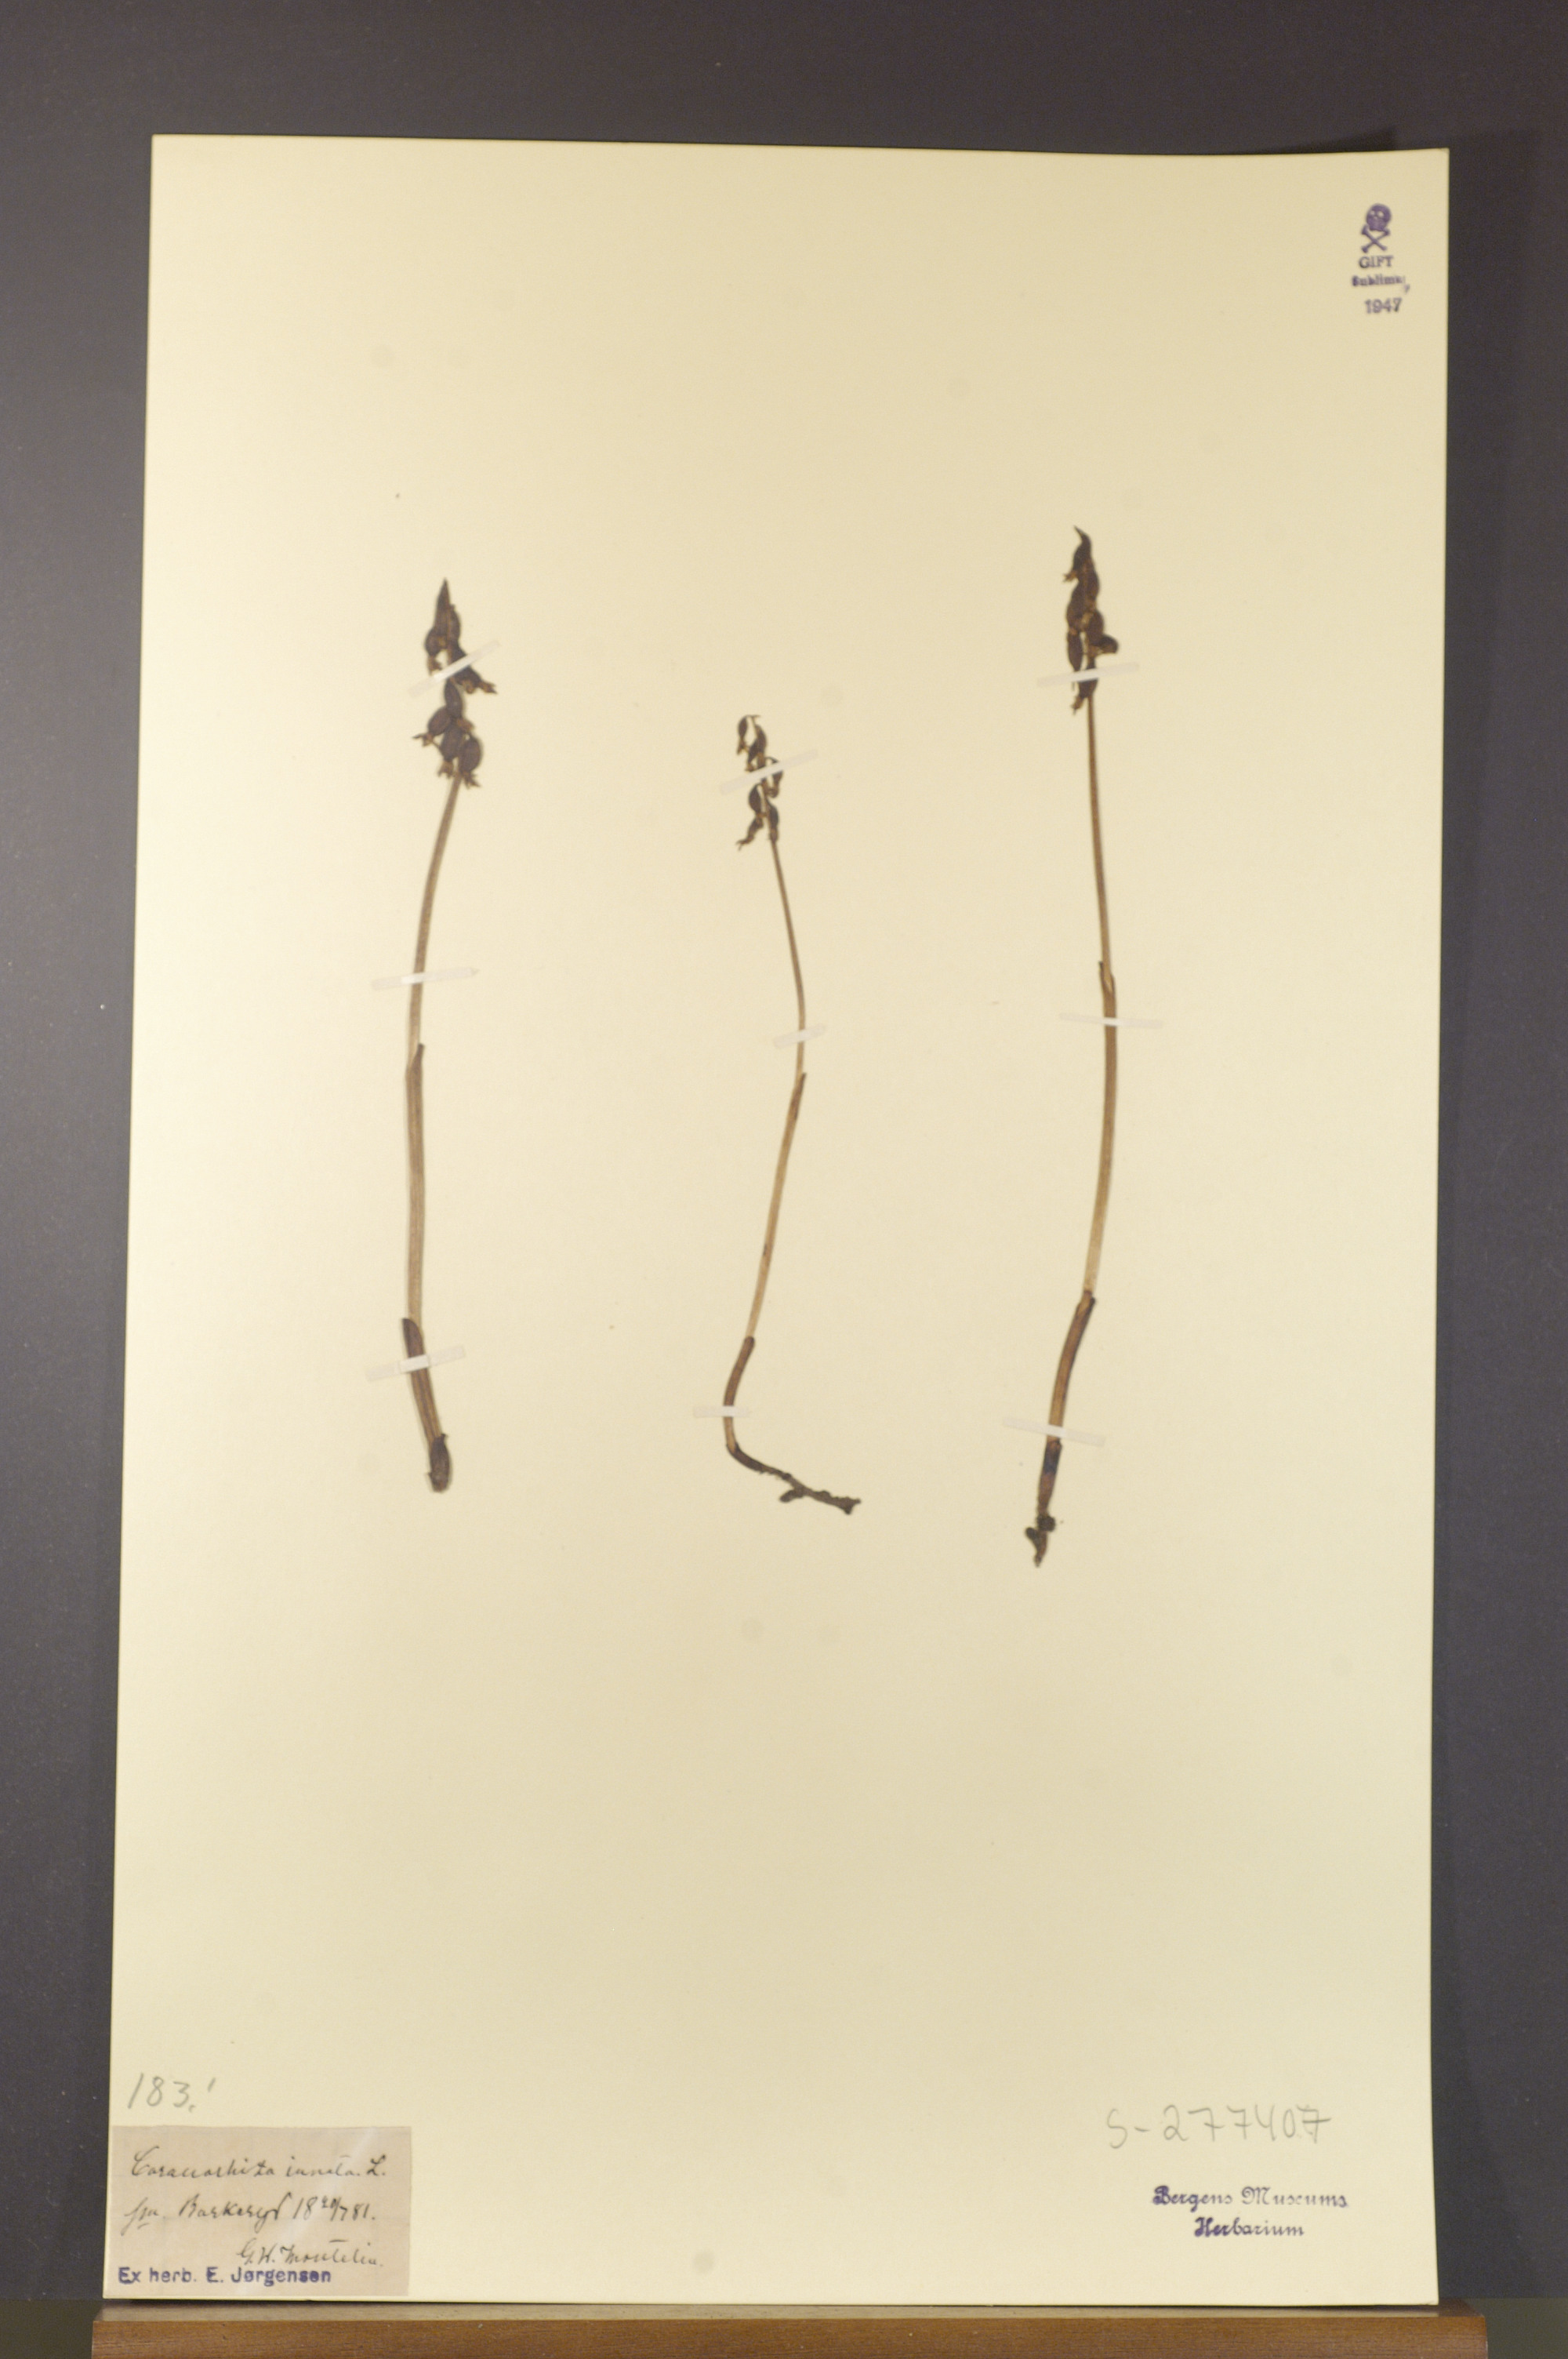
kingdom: Plantae
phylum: Tracheophyta
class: Liliopsida
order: Asparagales
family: Orchidaceae
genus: Corallorhiza
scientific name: Corallorhiza trifida
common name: Yellow coralroot
